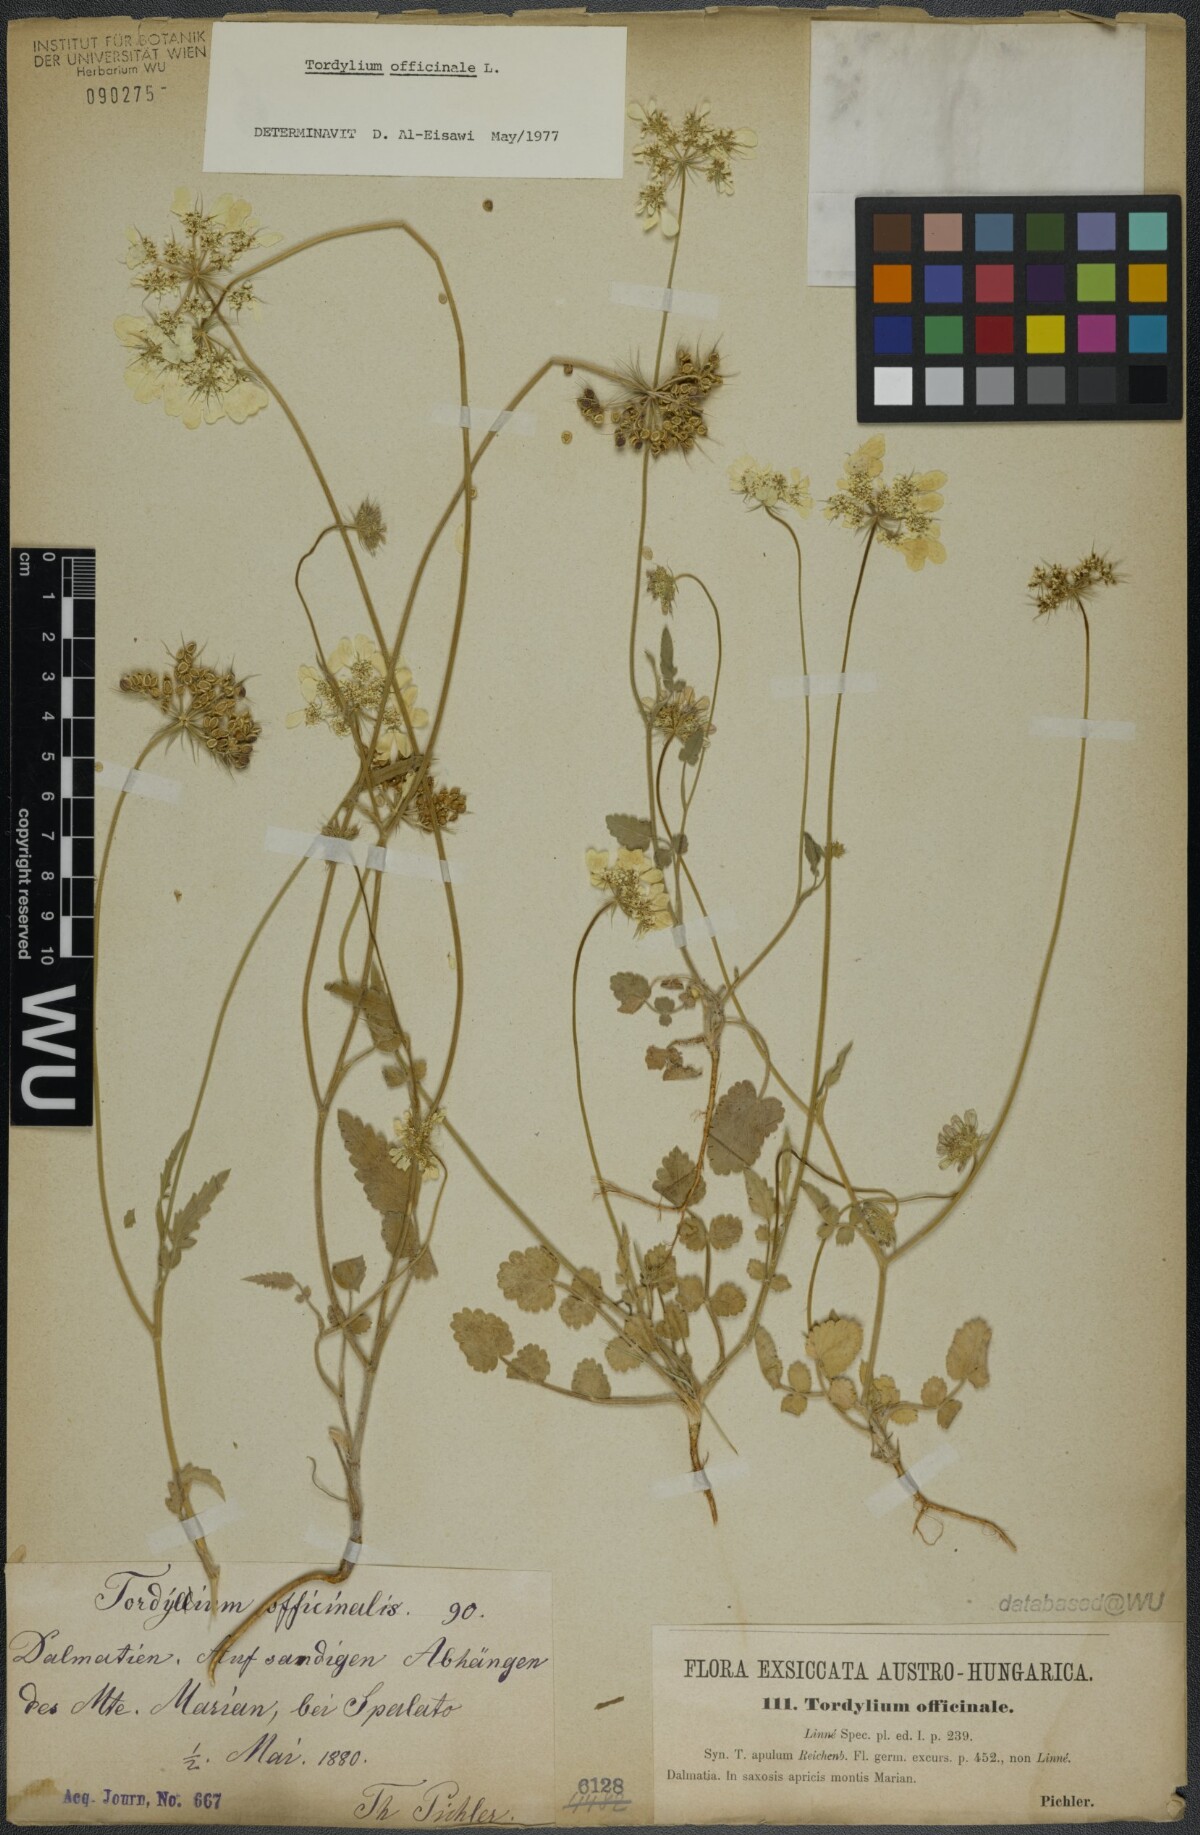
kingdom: Plantae
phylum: Tracheophyta
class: Magnoliopsida
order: Apiales
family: Apiaceae
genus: Tordylium
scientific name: Tordylium officinale
